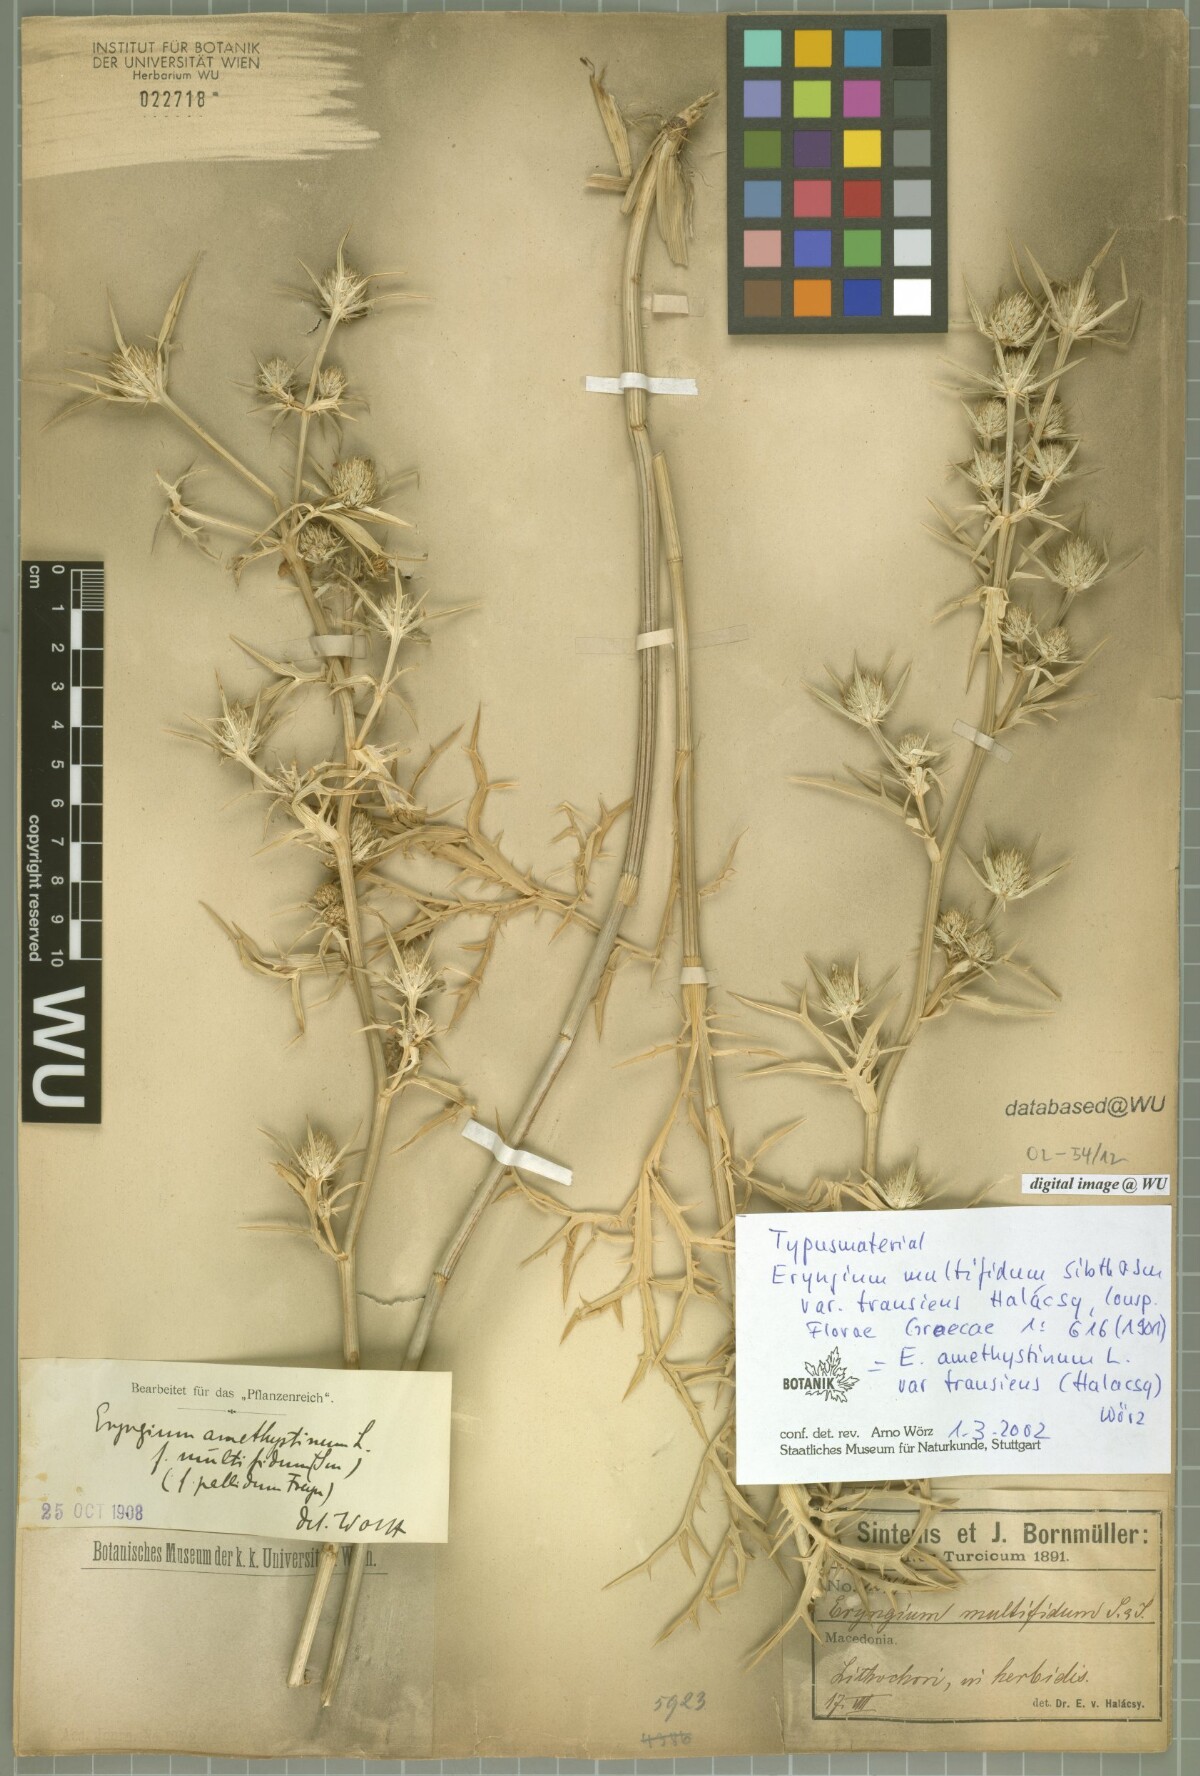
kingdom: Plantae
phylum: Tracheophyta
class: Magnoliopsida
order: Apiales
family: Apiaceae
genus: Eryngium
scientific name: Eryngium amethystinum
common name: Amethyst eryngo
